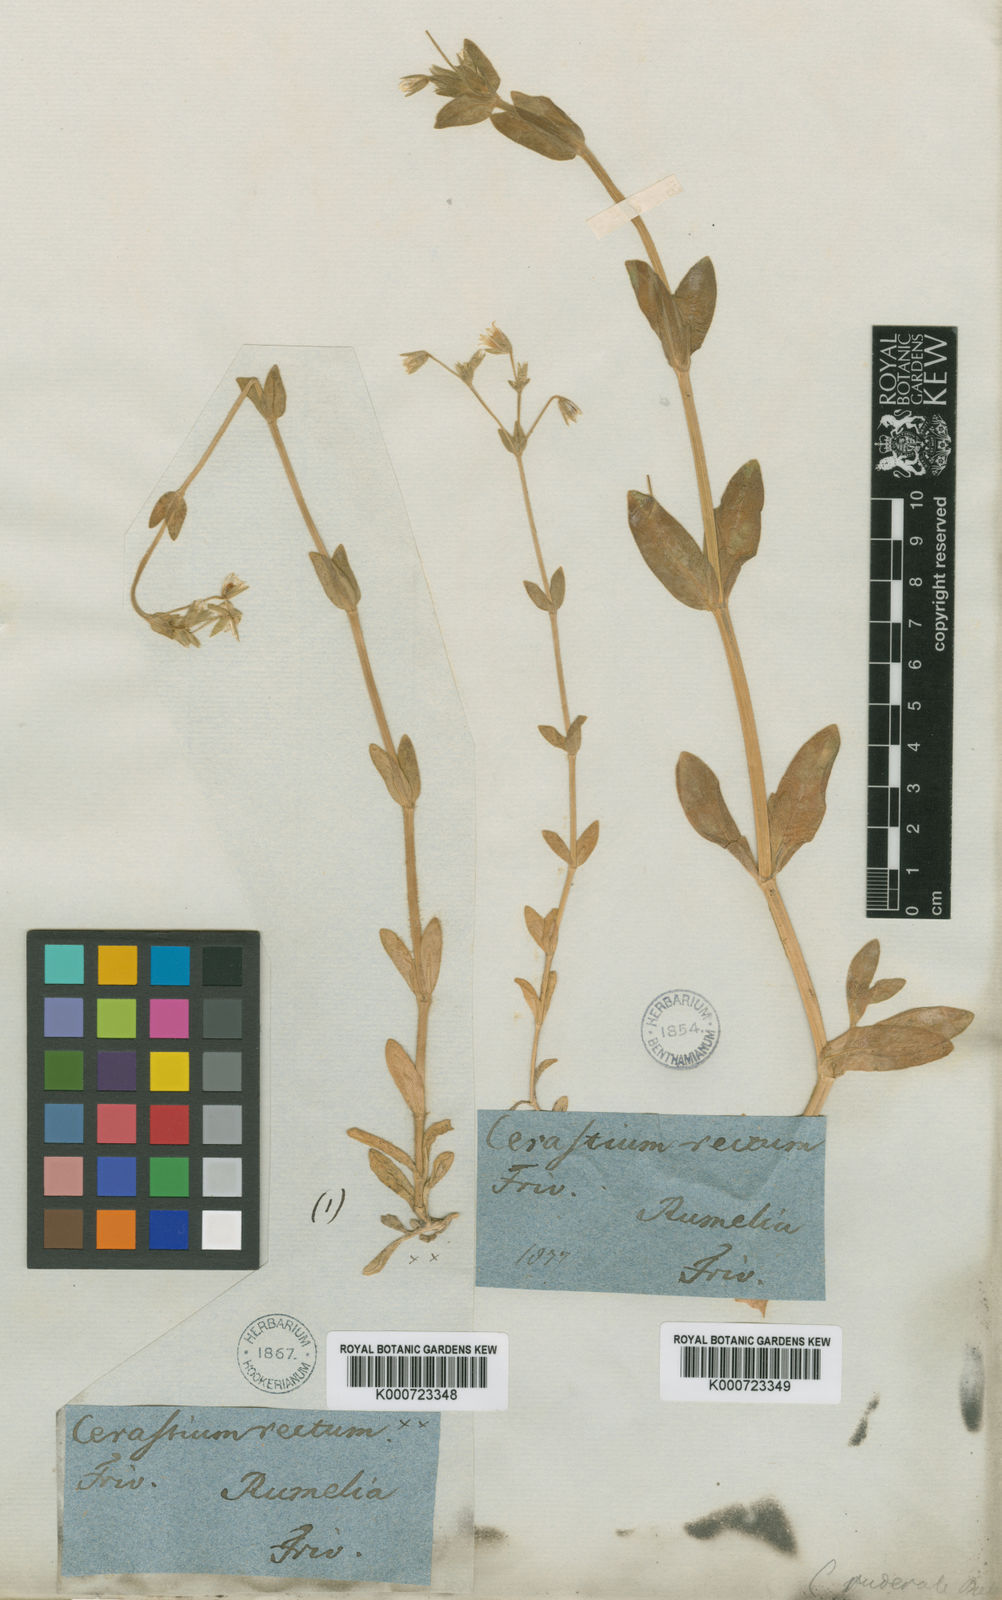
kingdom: Plantae
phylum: Tracheophyta
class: Magnoliopsida
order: Caryophyllales
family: Caryophyllaceae
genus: Cerastium
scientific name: Cerastium rectum
